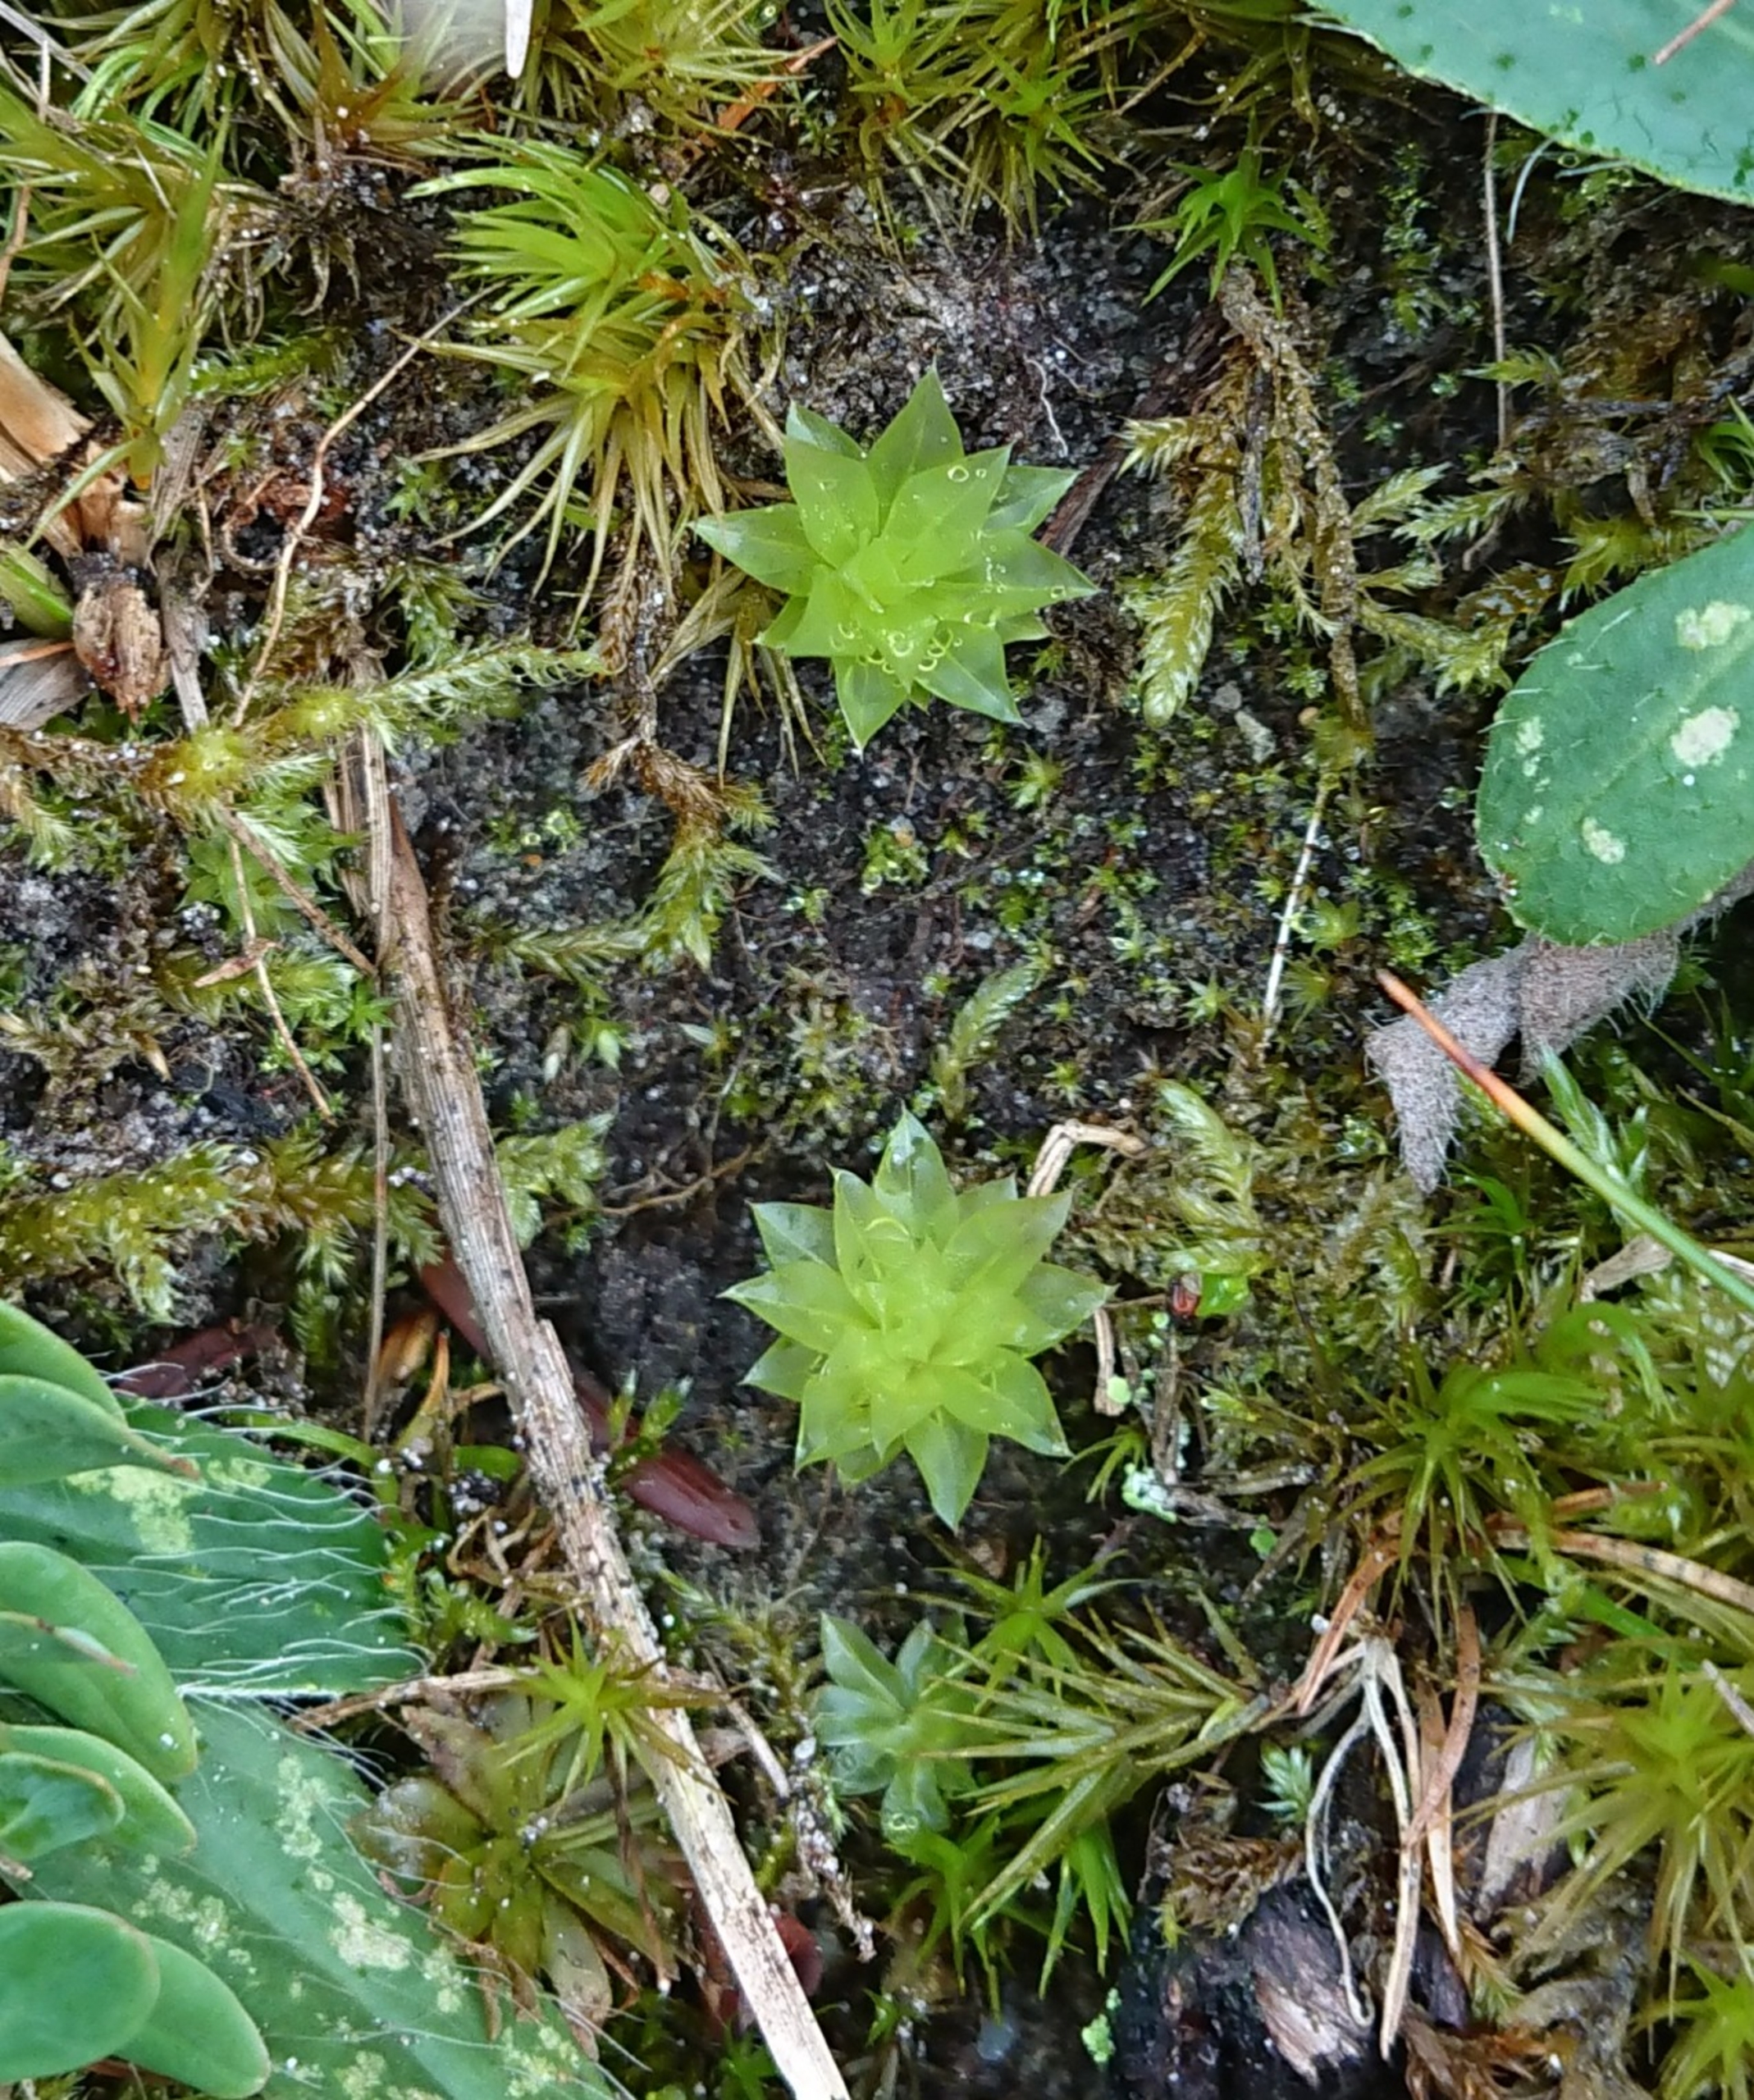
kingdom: Plantae
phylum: Bryophyta
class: Bryopsida
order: Bryales
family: Bryaceae
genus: Rhodobryum
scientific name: Rhodobryum roseum
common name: Stor rosetmos
